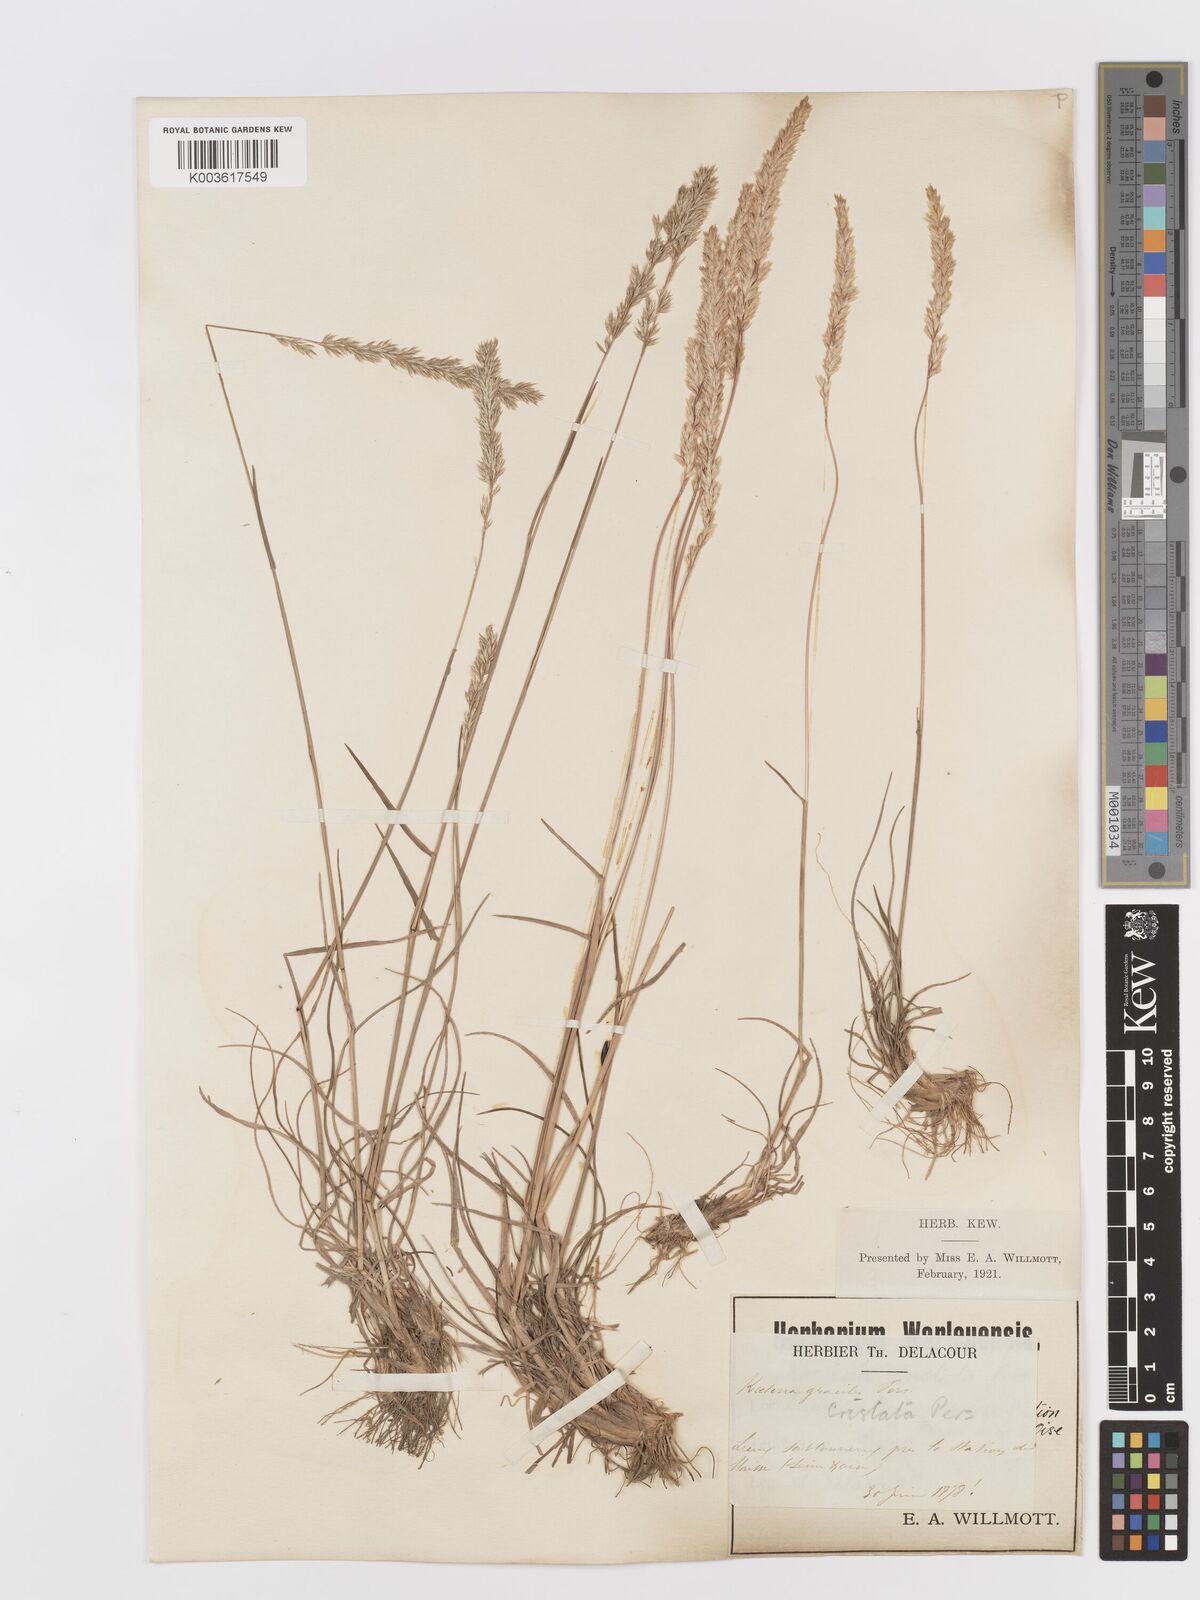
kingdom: Plantae
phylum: Tracheophyta
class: Liliopsida
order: Poales
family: Poaceae
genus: Koeleria
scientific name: Koeleria
